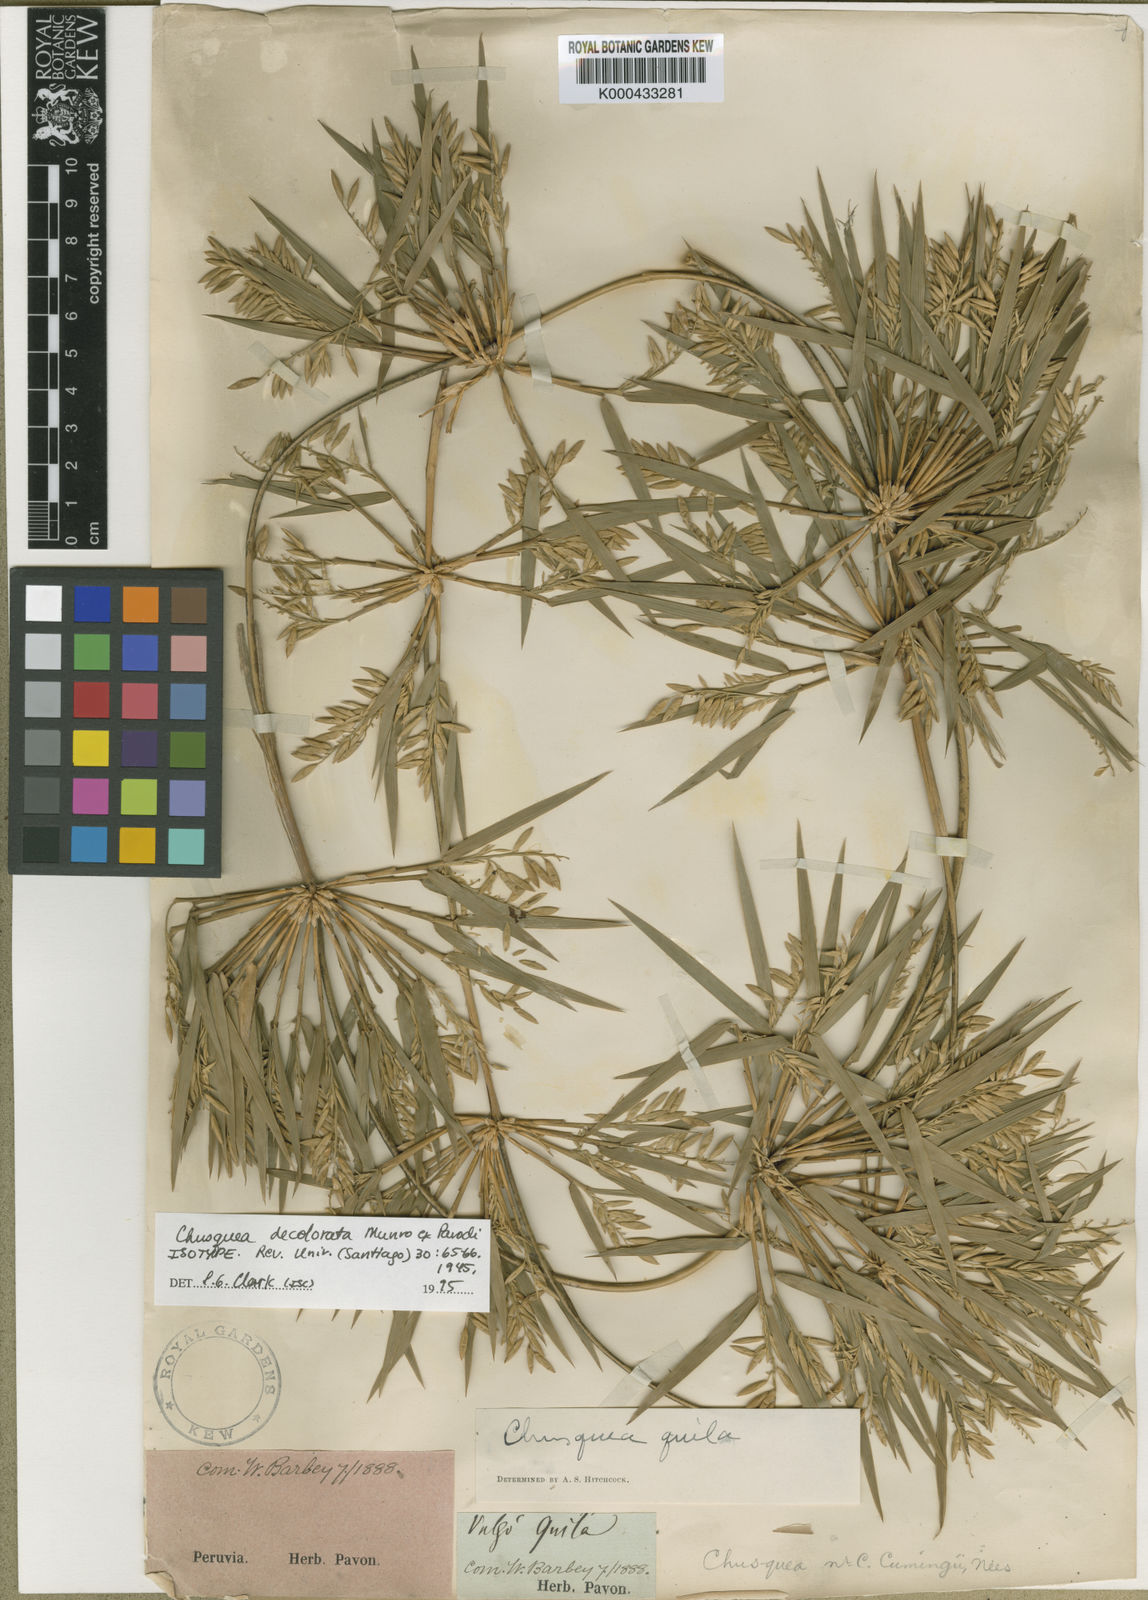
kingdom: Plantae
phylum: Tracheophyta
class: Liliopsida
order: Poales
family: Poaceae
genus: Chusquea
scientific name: Chusquea
